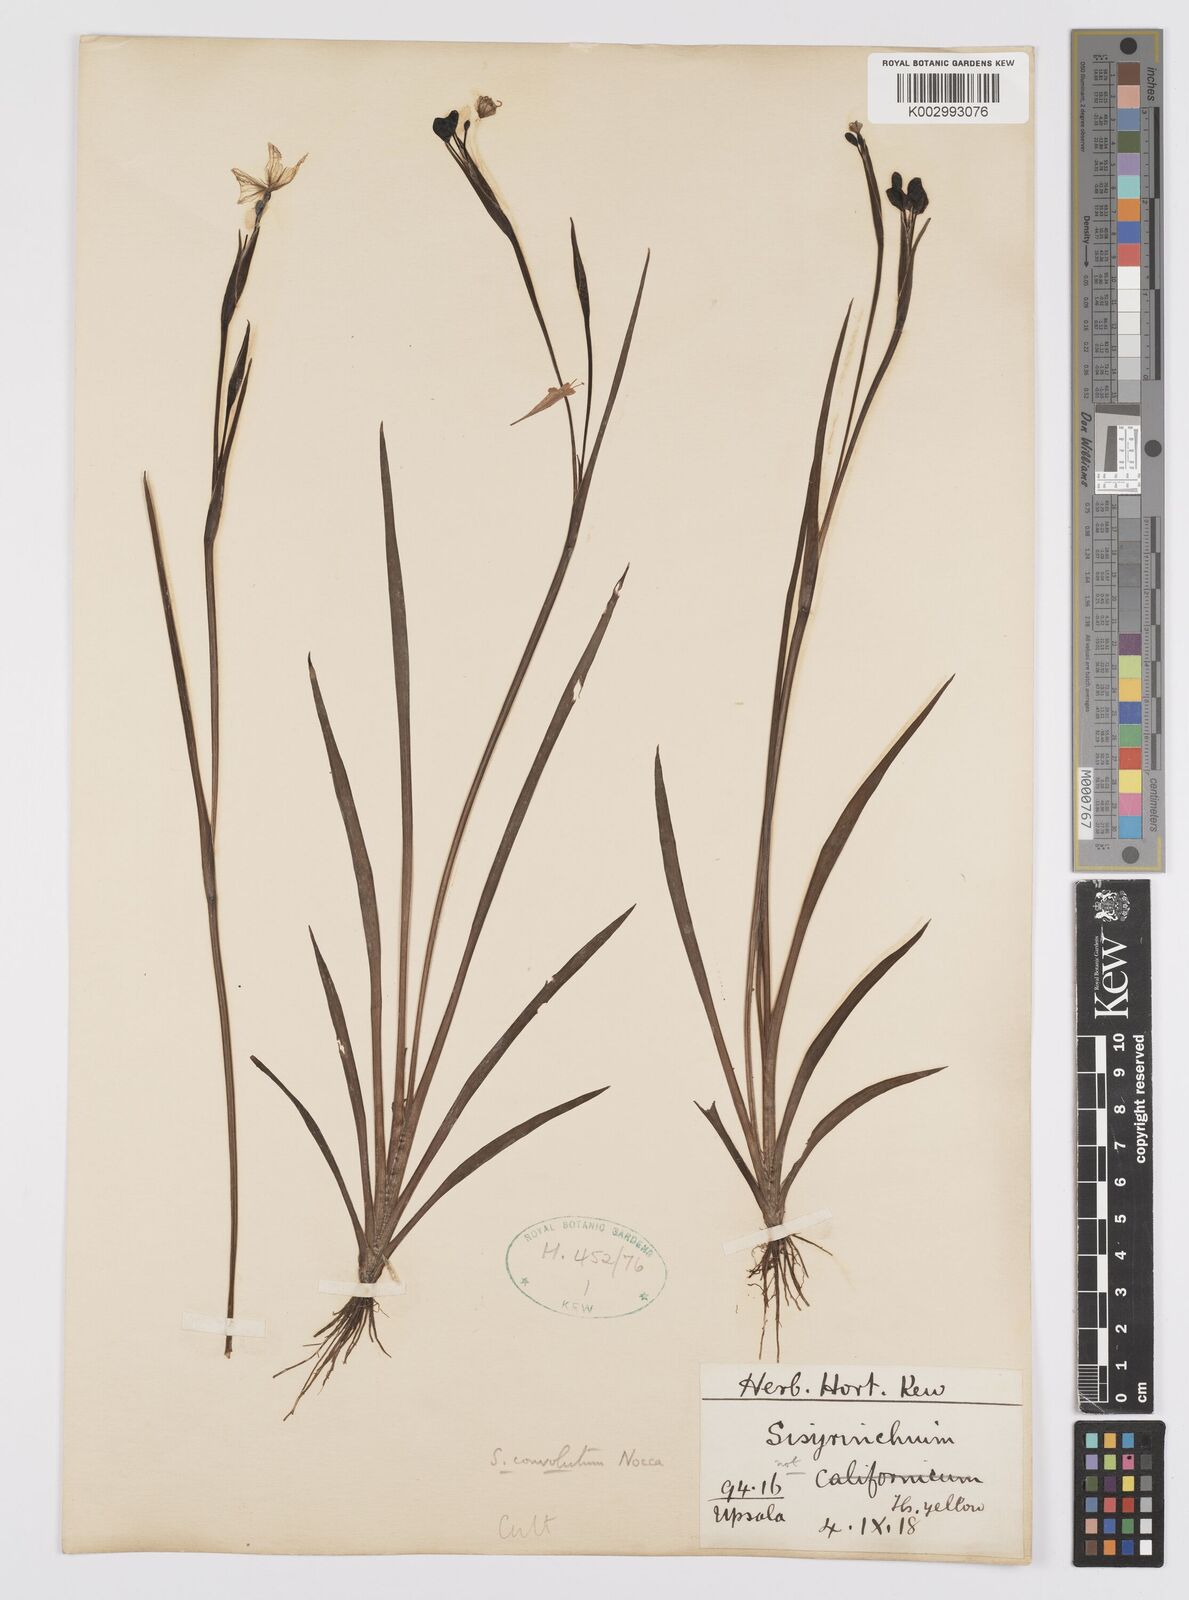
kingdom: Plantae
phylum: Tracheophyta
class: Liliopsida
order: Asparagales
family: Iridaceae
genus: Sisyrinchium
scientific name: Sisyrinchium convolutum
